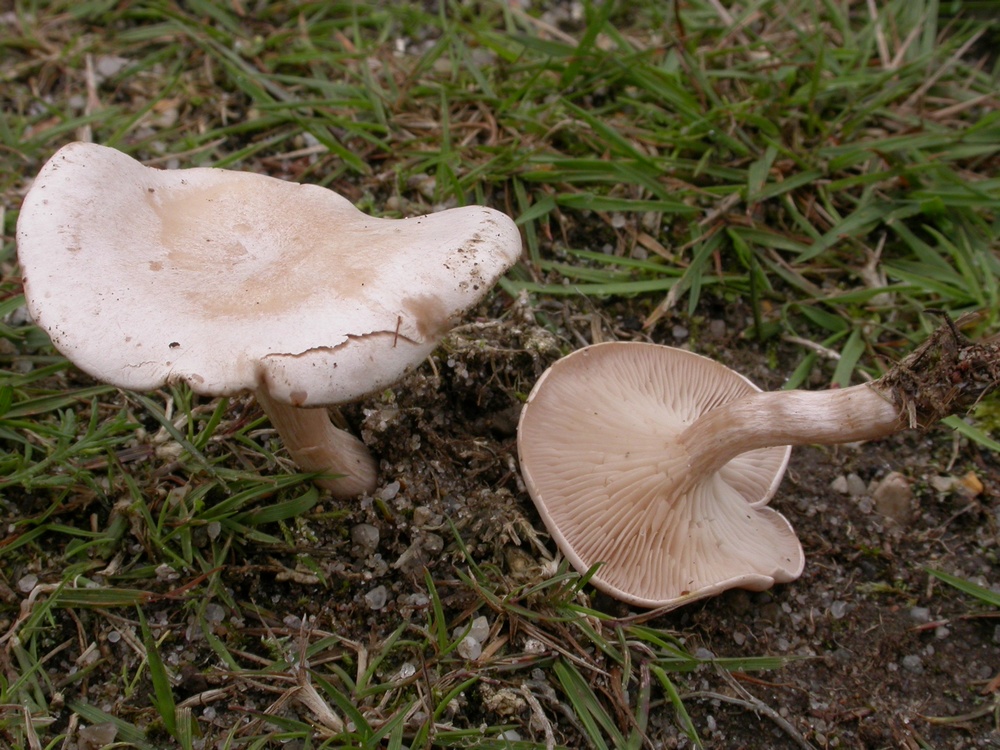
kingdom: Fungi
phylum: Basidiomycota
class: Agaricomycetes
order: Agaricales
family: Tricholomataceae
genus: Clitocybe
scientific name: Clitocybe rivulosa
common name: eng-tragthat
